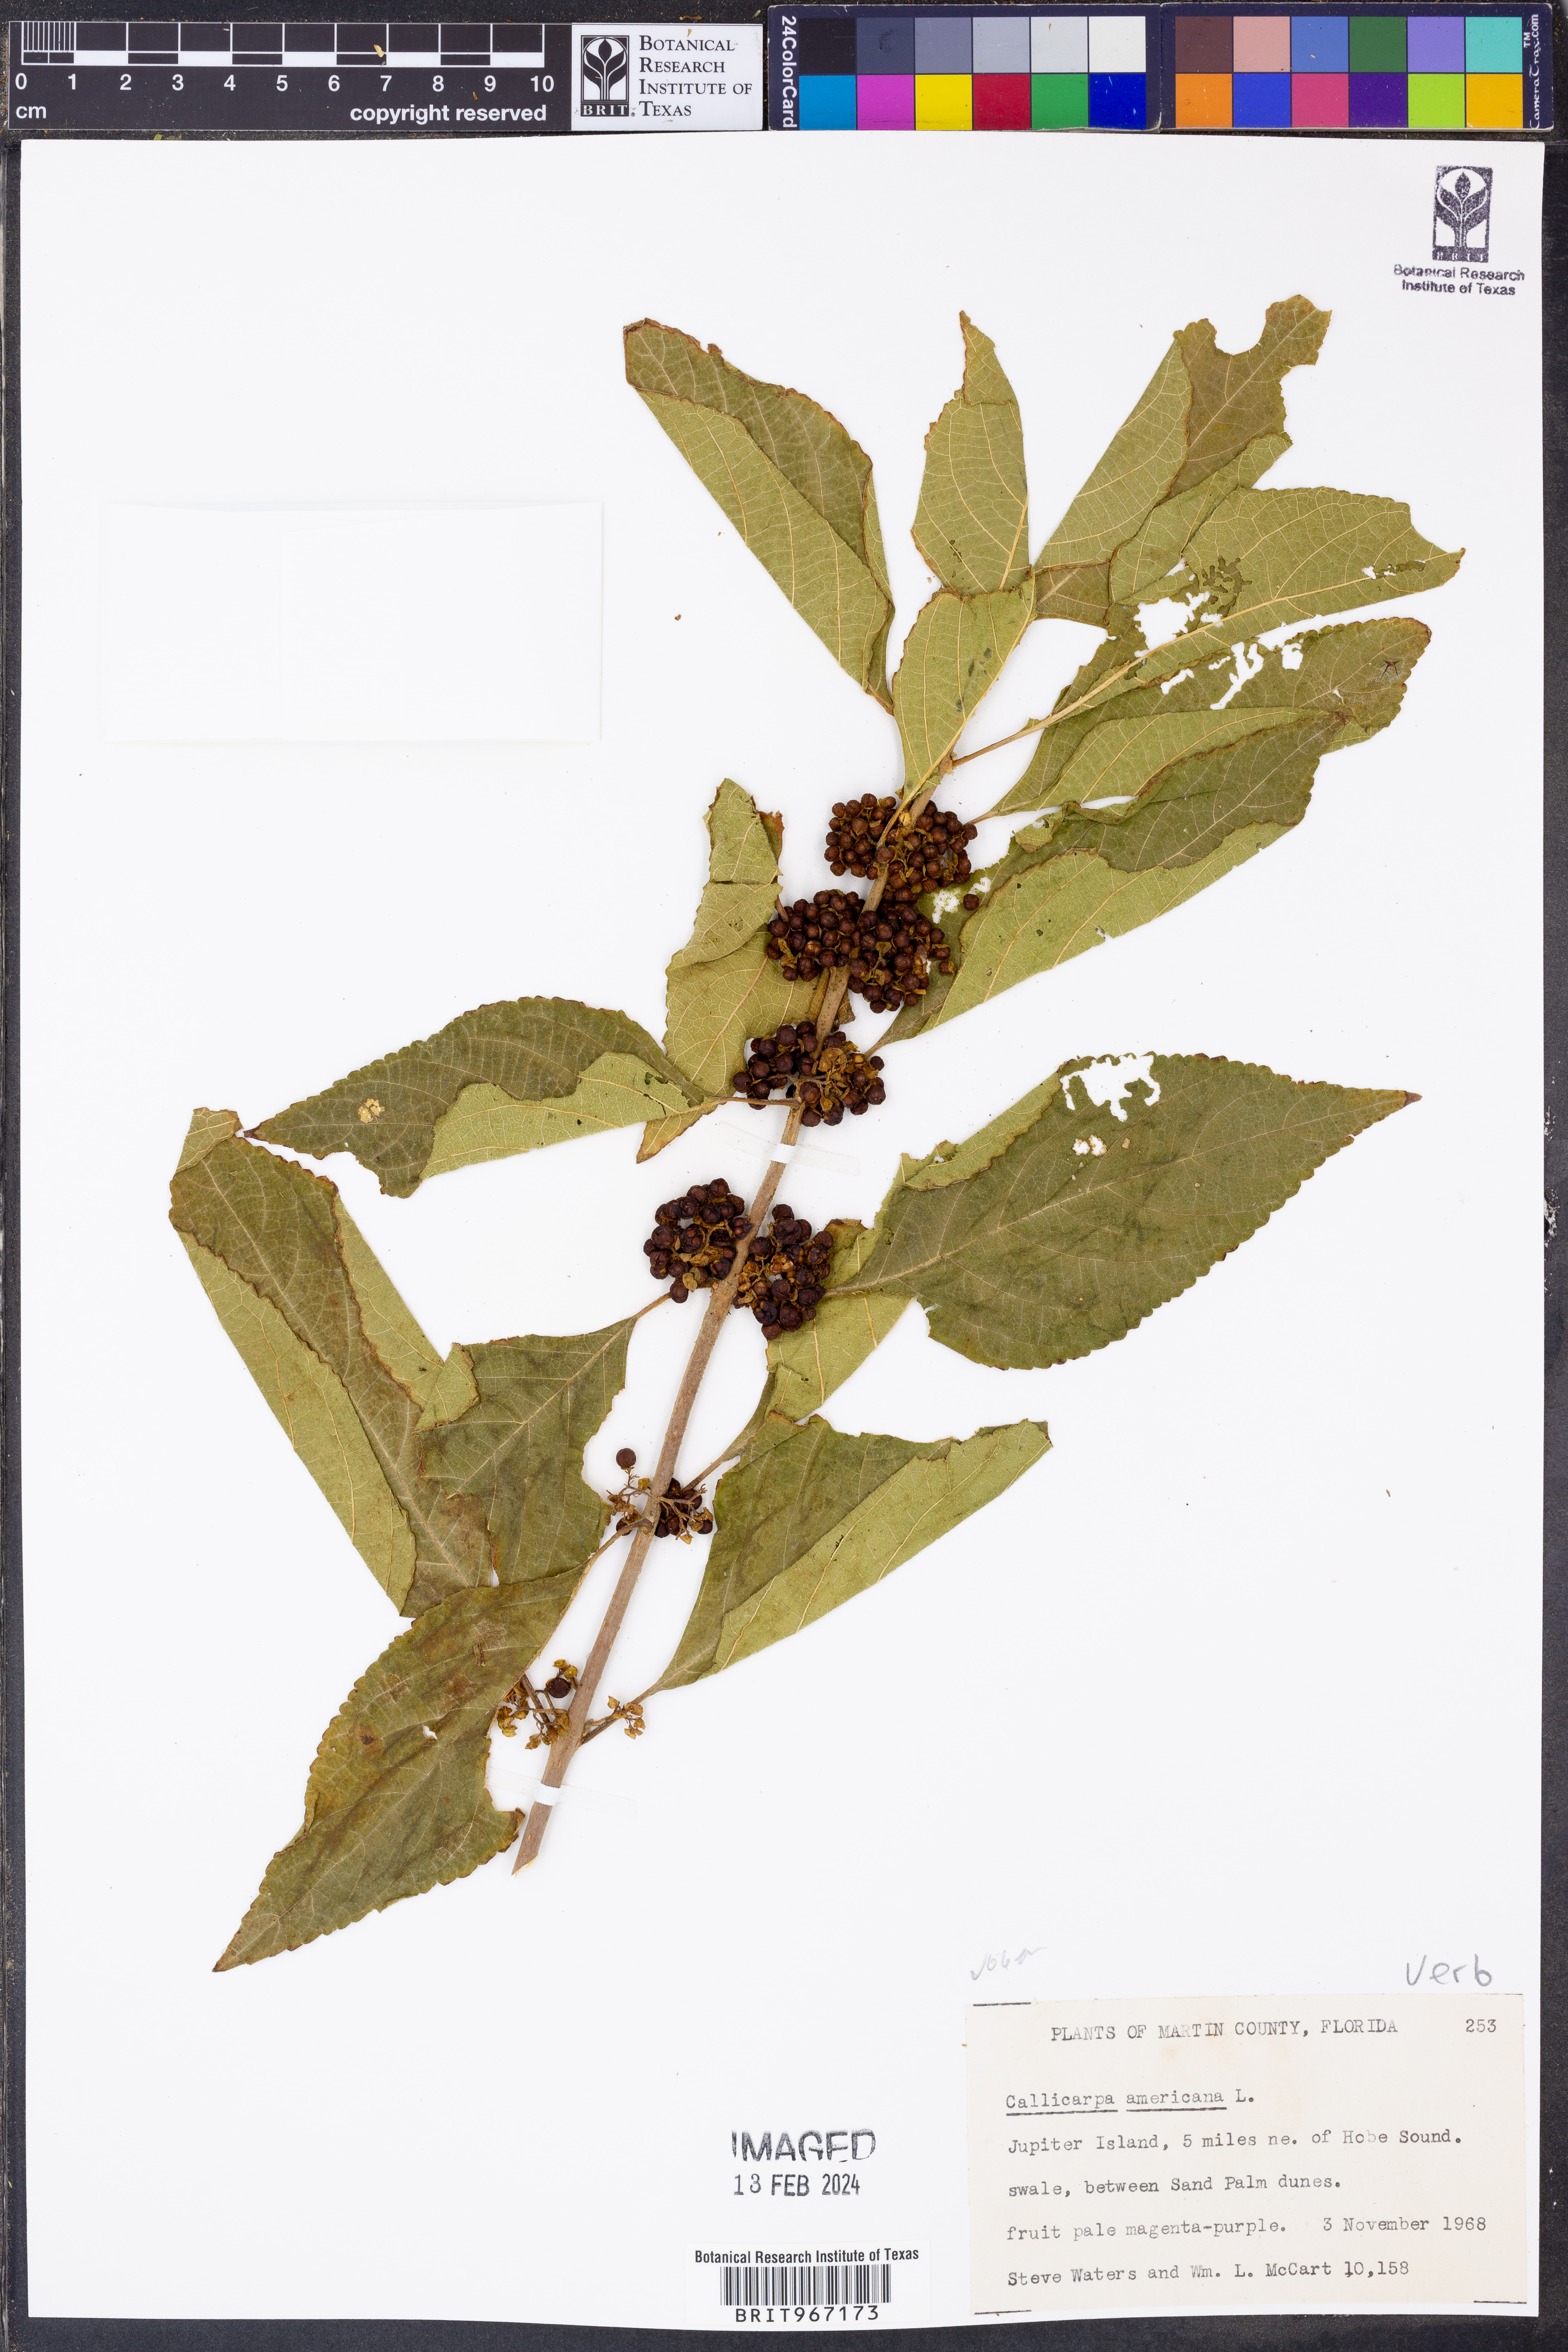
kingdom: Plantae
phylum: Tracheophyta
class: Magnoliopsida
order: Lamiales
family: Lamiaceae
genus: Callicarpa
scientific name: Callicarpa americana
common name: American beautyberry
